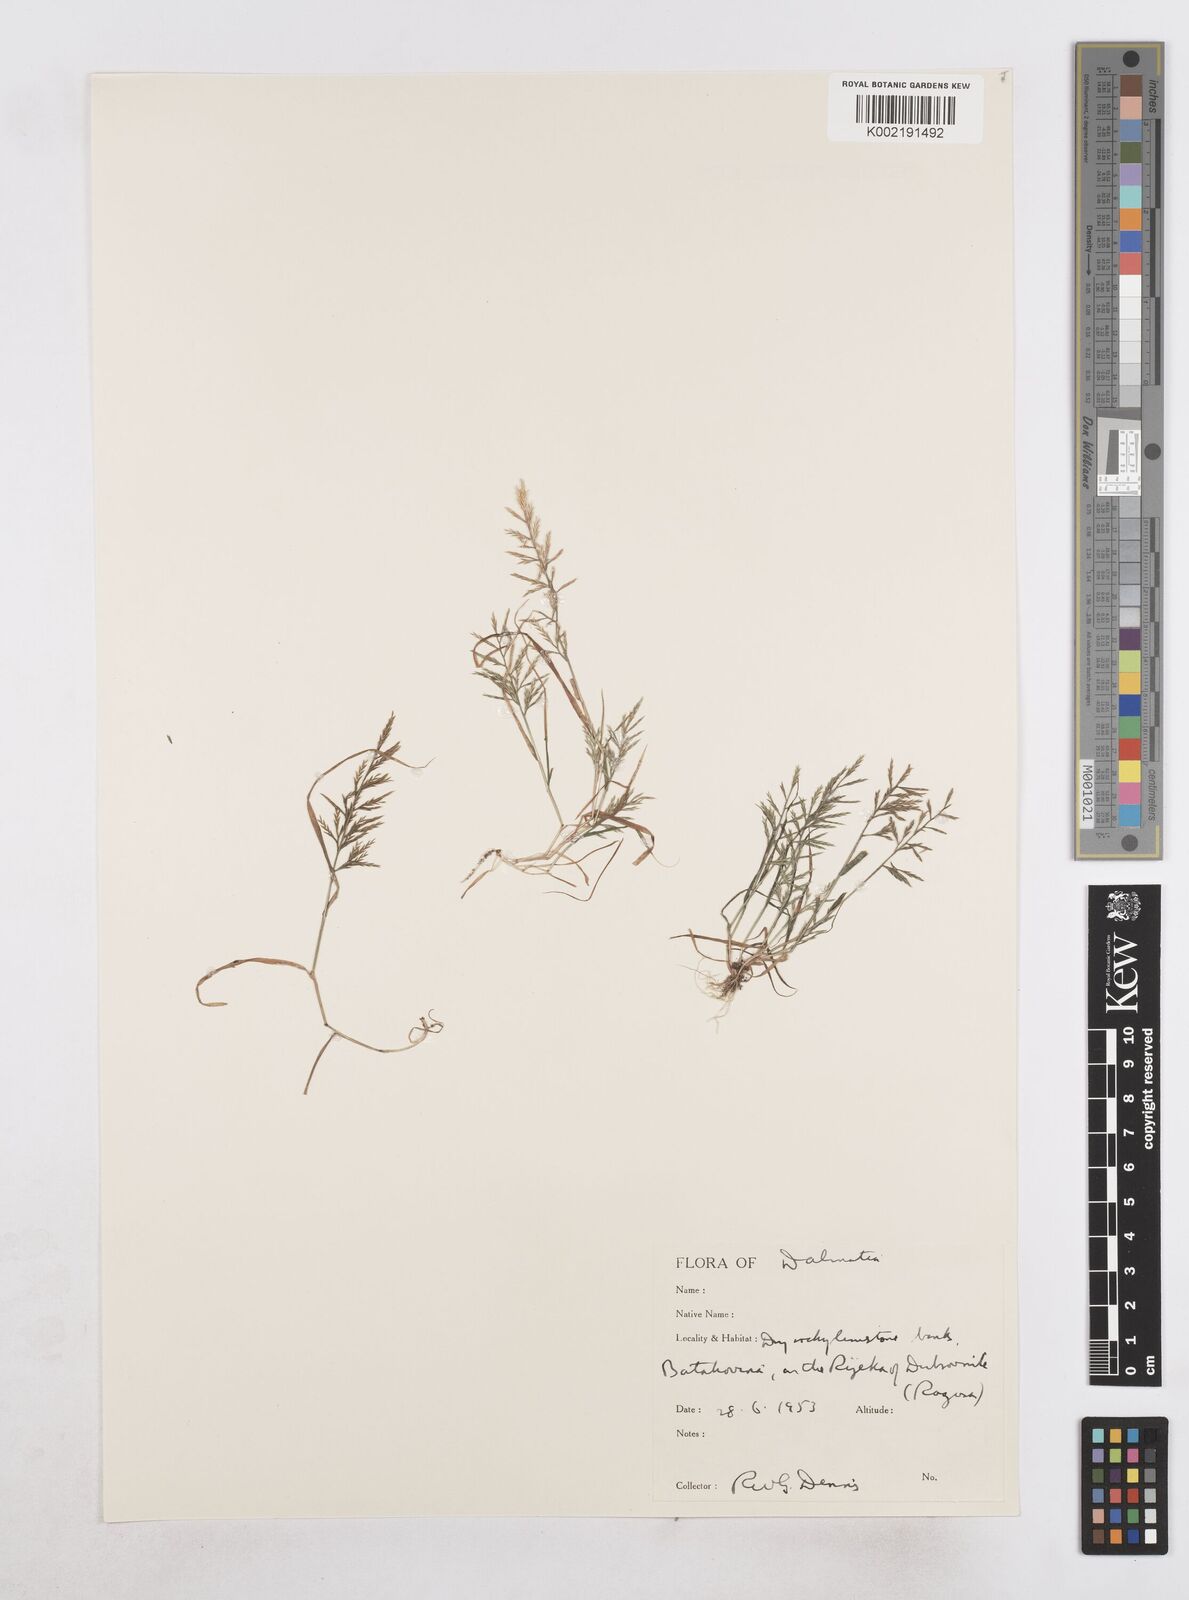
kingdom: Plantae
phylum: Tracheophyta
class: Liliopsida
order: Poales
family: Poaceae
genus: Catapodium
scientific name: Catapodium rigidum
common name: Fern-grass
